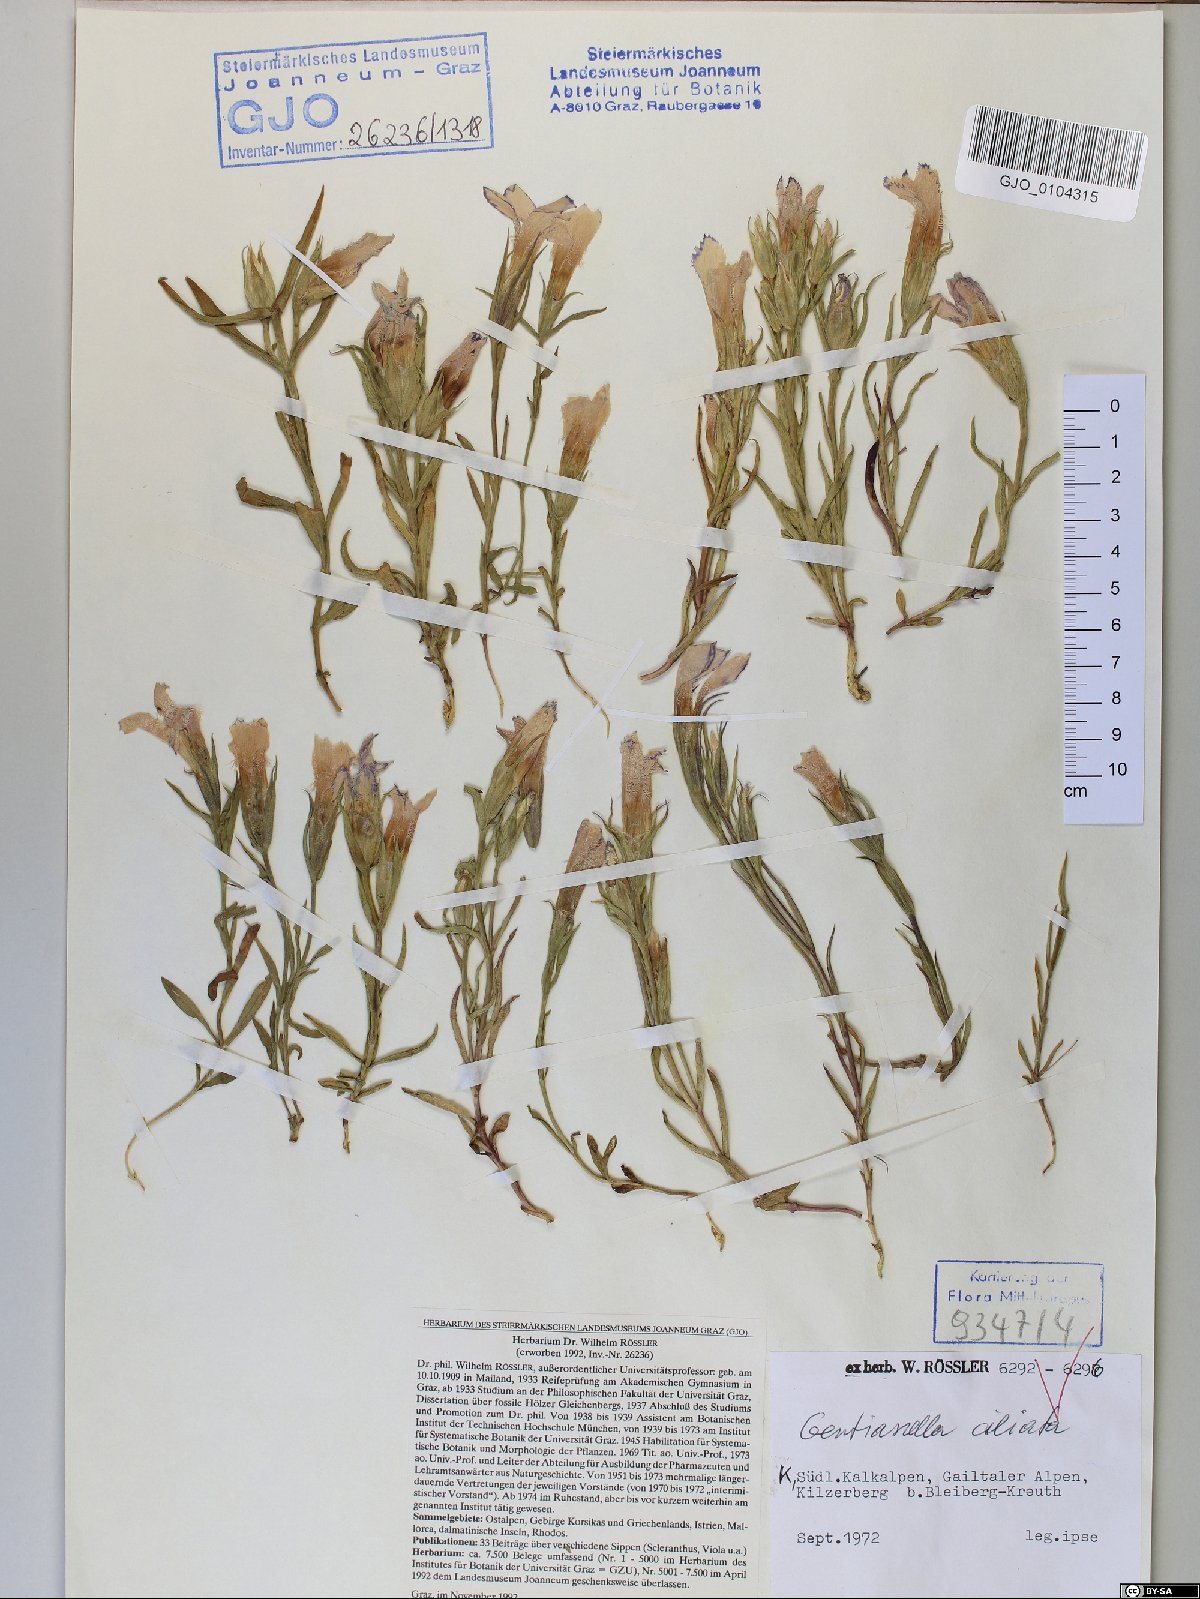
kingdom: Plantae
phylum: Tracheophyta
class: Magnoliopsida
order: Gentianales
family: Gentianaceae
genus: Gentianopsis
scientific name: Gentianopsis ciliata
